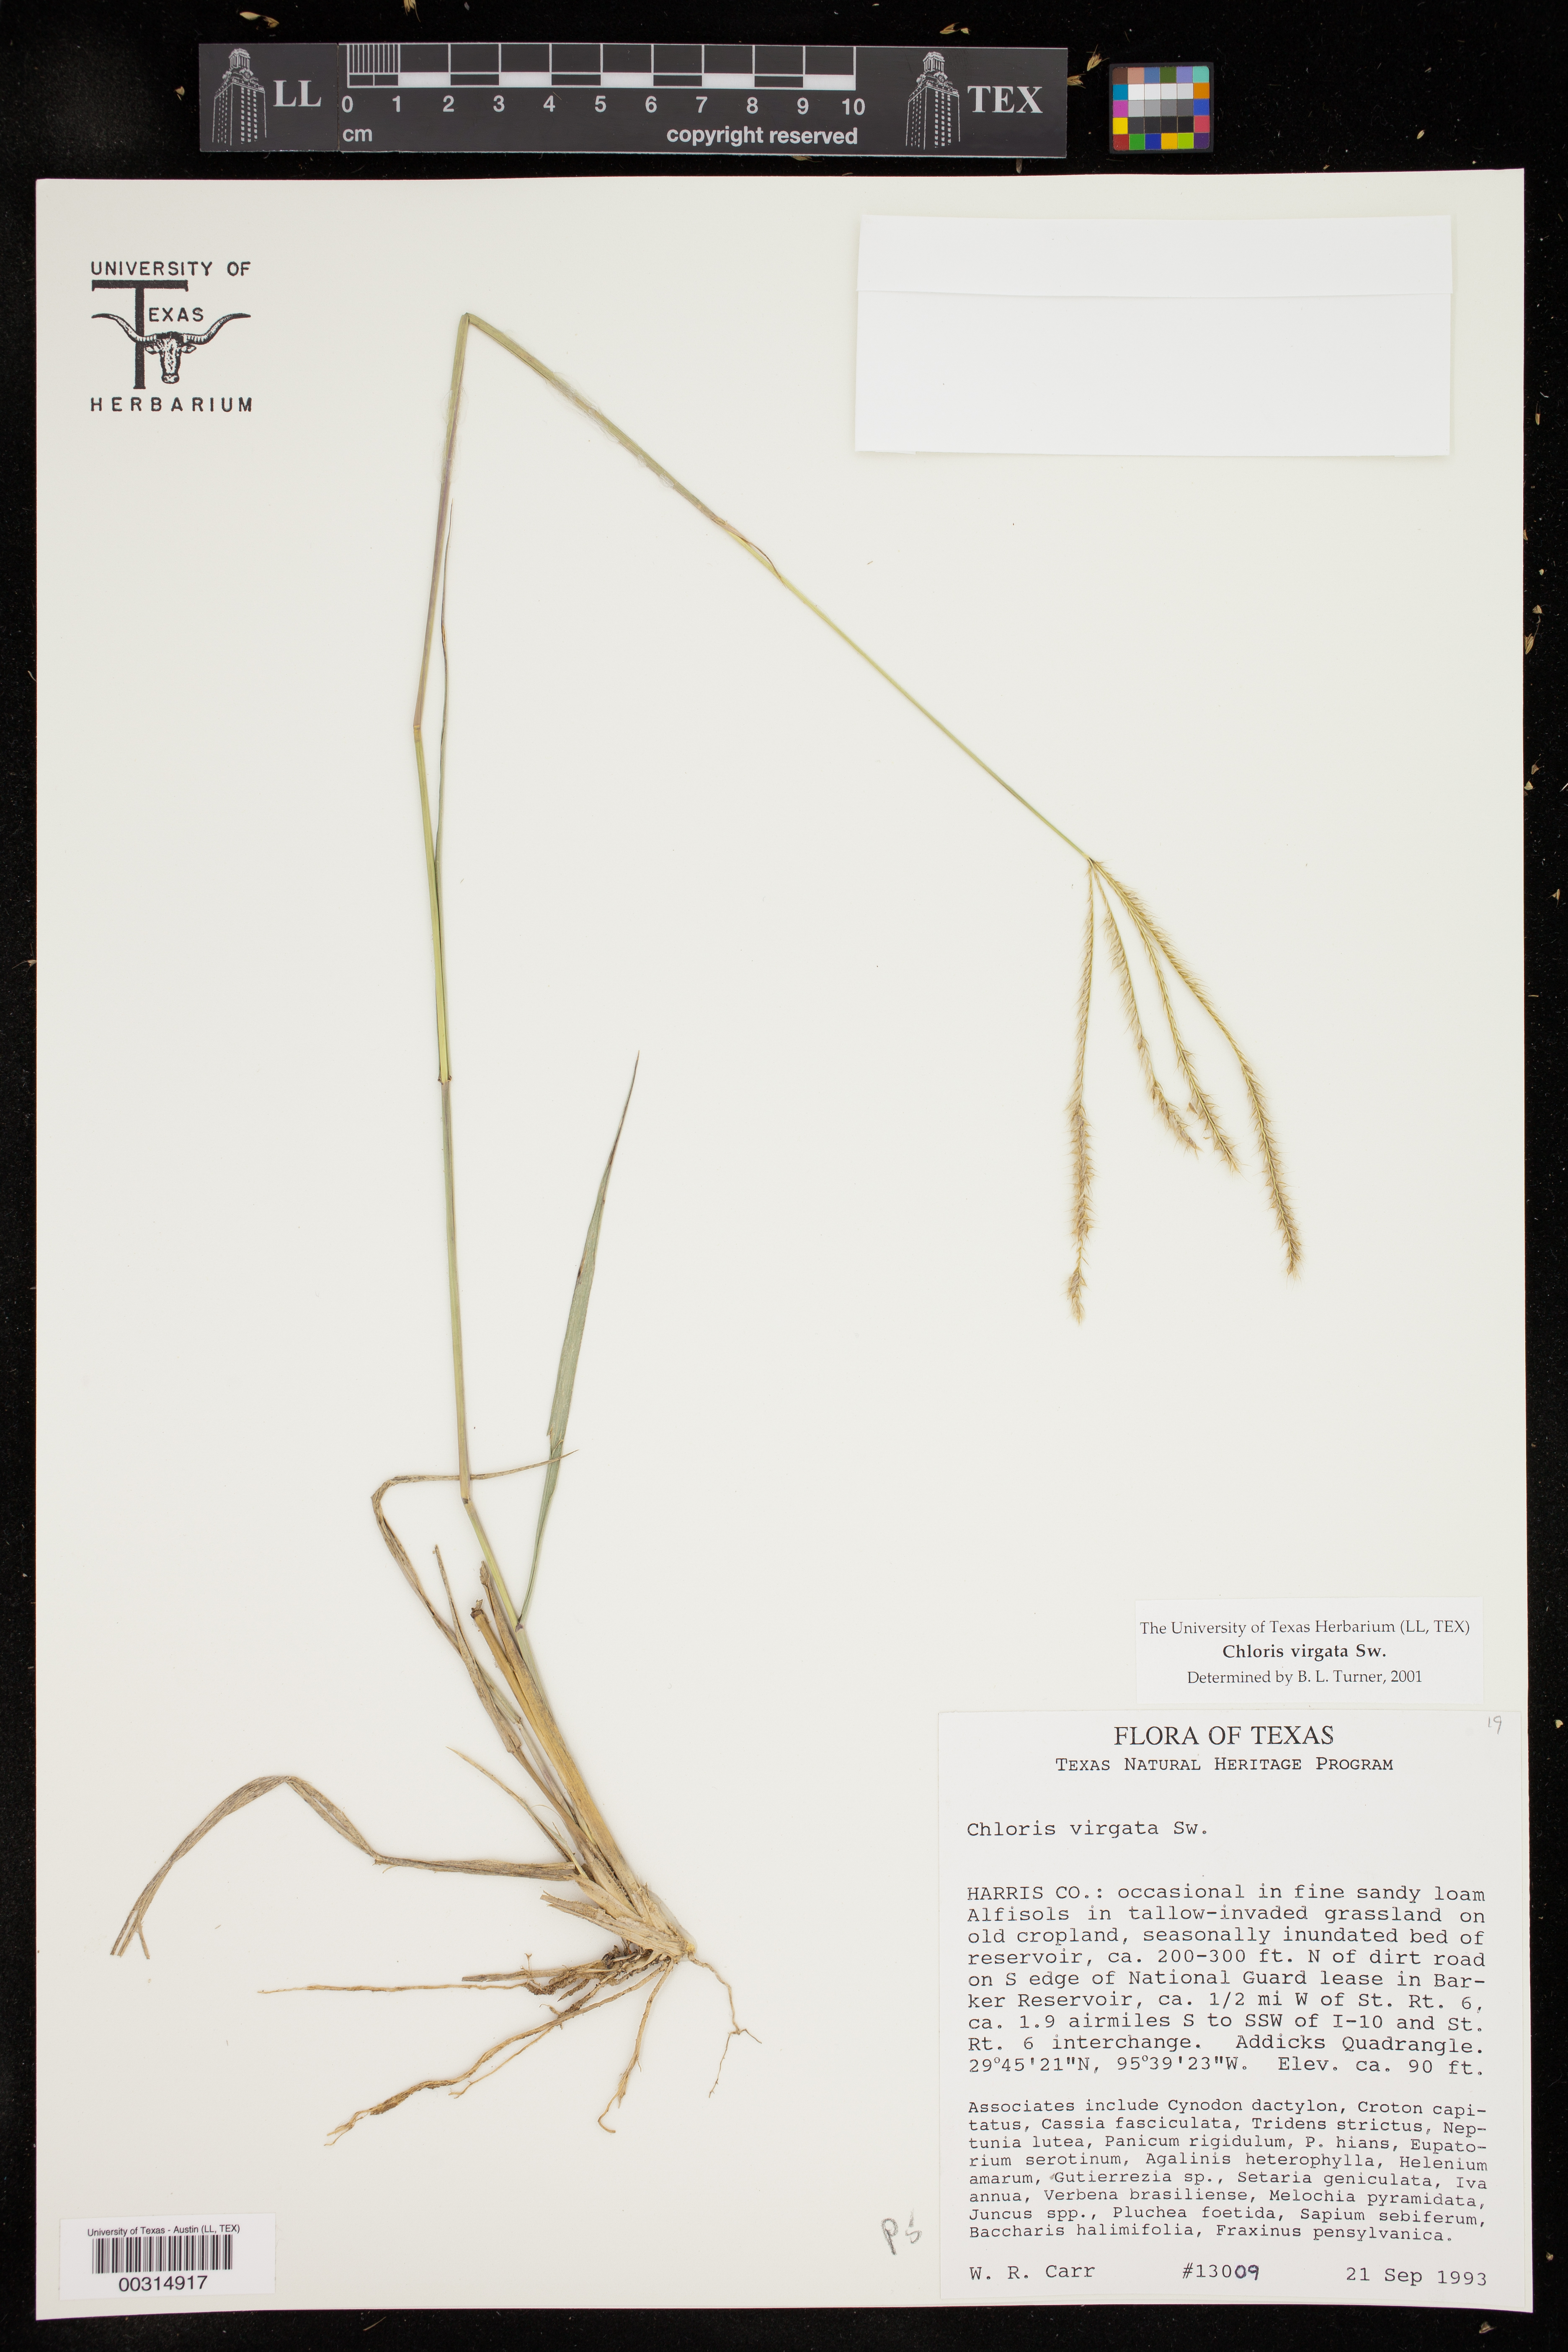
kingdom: Plantae
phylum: Tracheophyta
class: Liliopsida
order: Poales
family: Poaceae
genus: Chloris
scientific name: Chloris virgata
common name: Feathery rhodes-grass
